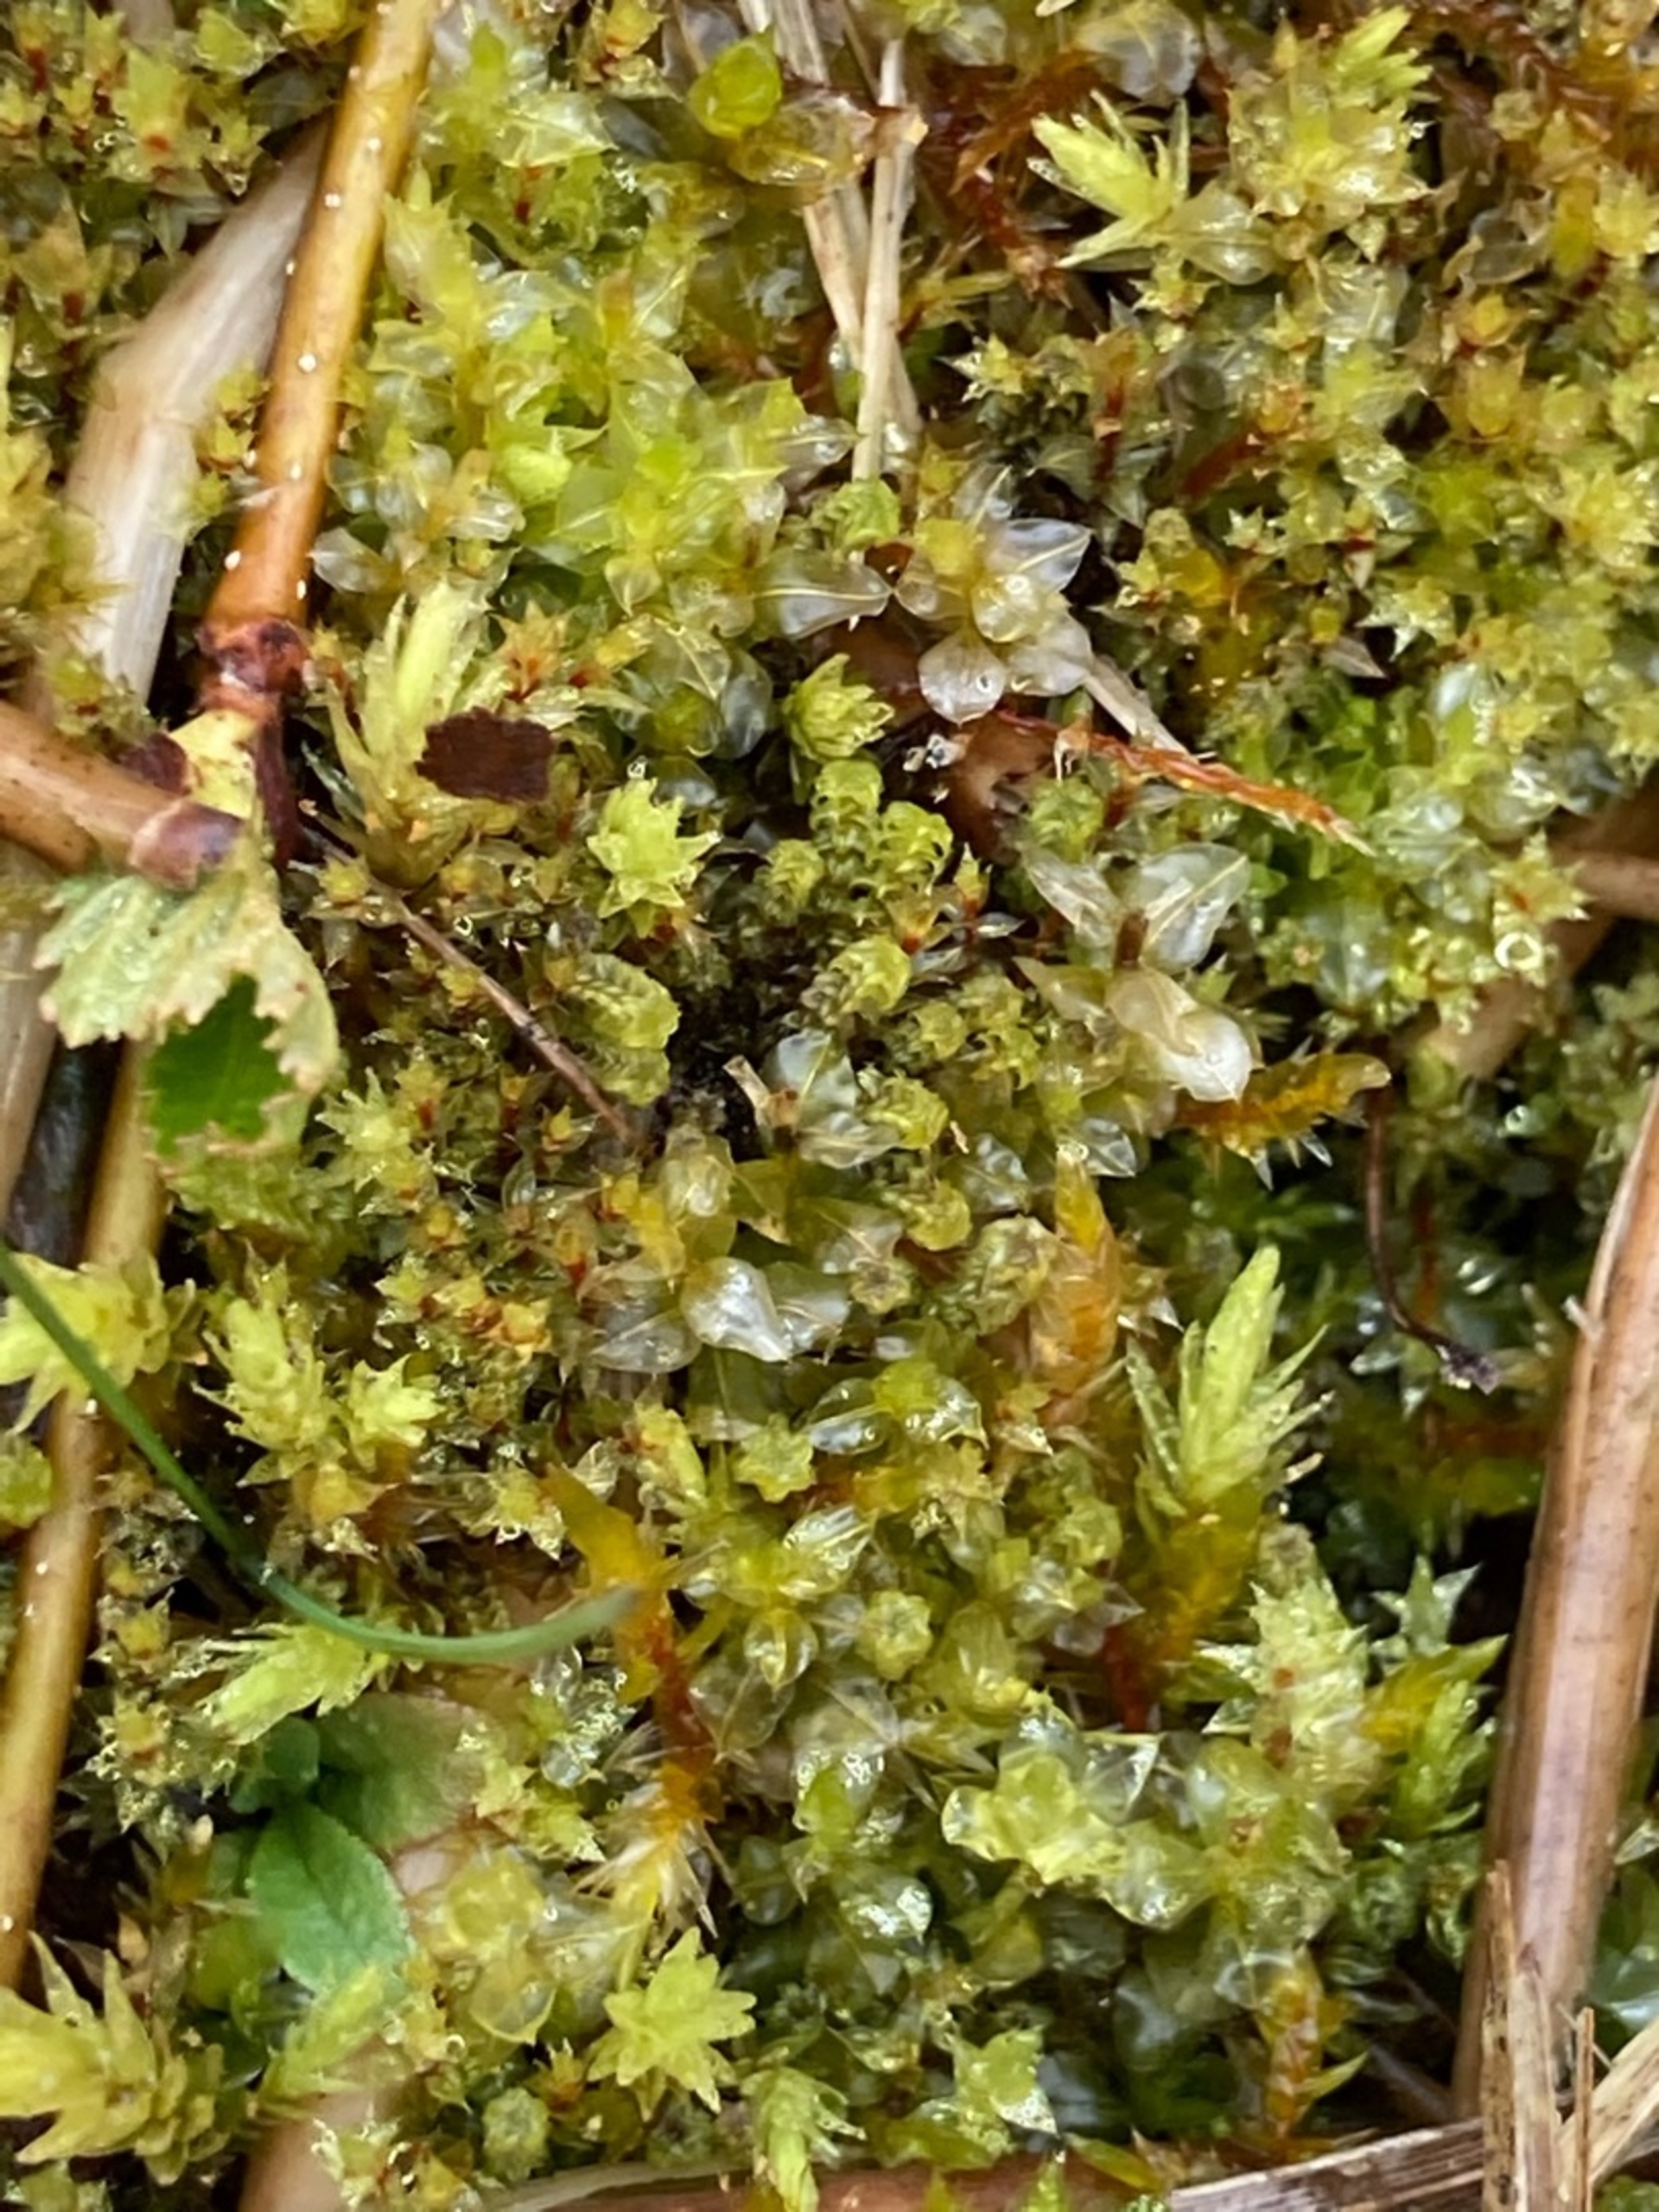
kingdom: Plantae
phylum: Bryophyta
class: Bryopsida
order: Splachnales
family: Meesiaceae
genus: Paludella
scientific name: Paludella squarrosa
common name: Almindelig piberensermos
